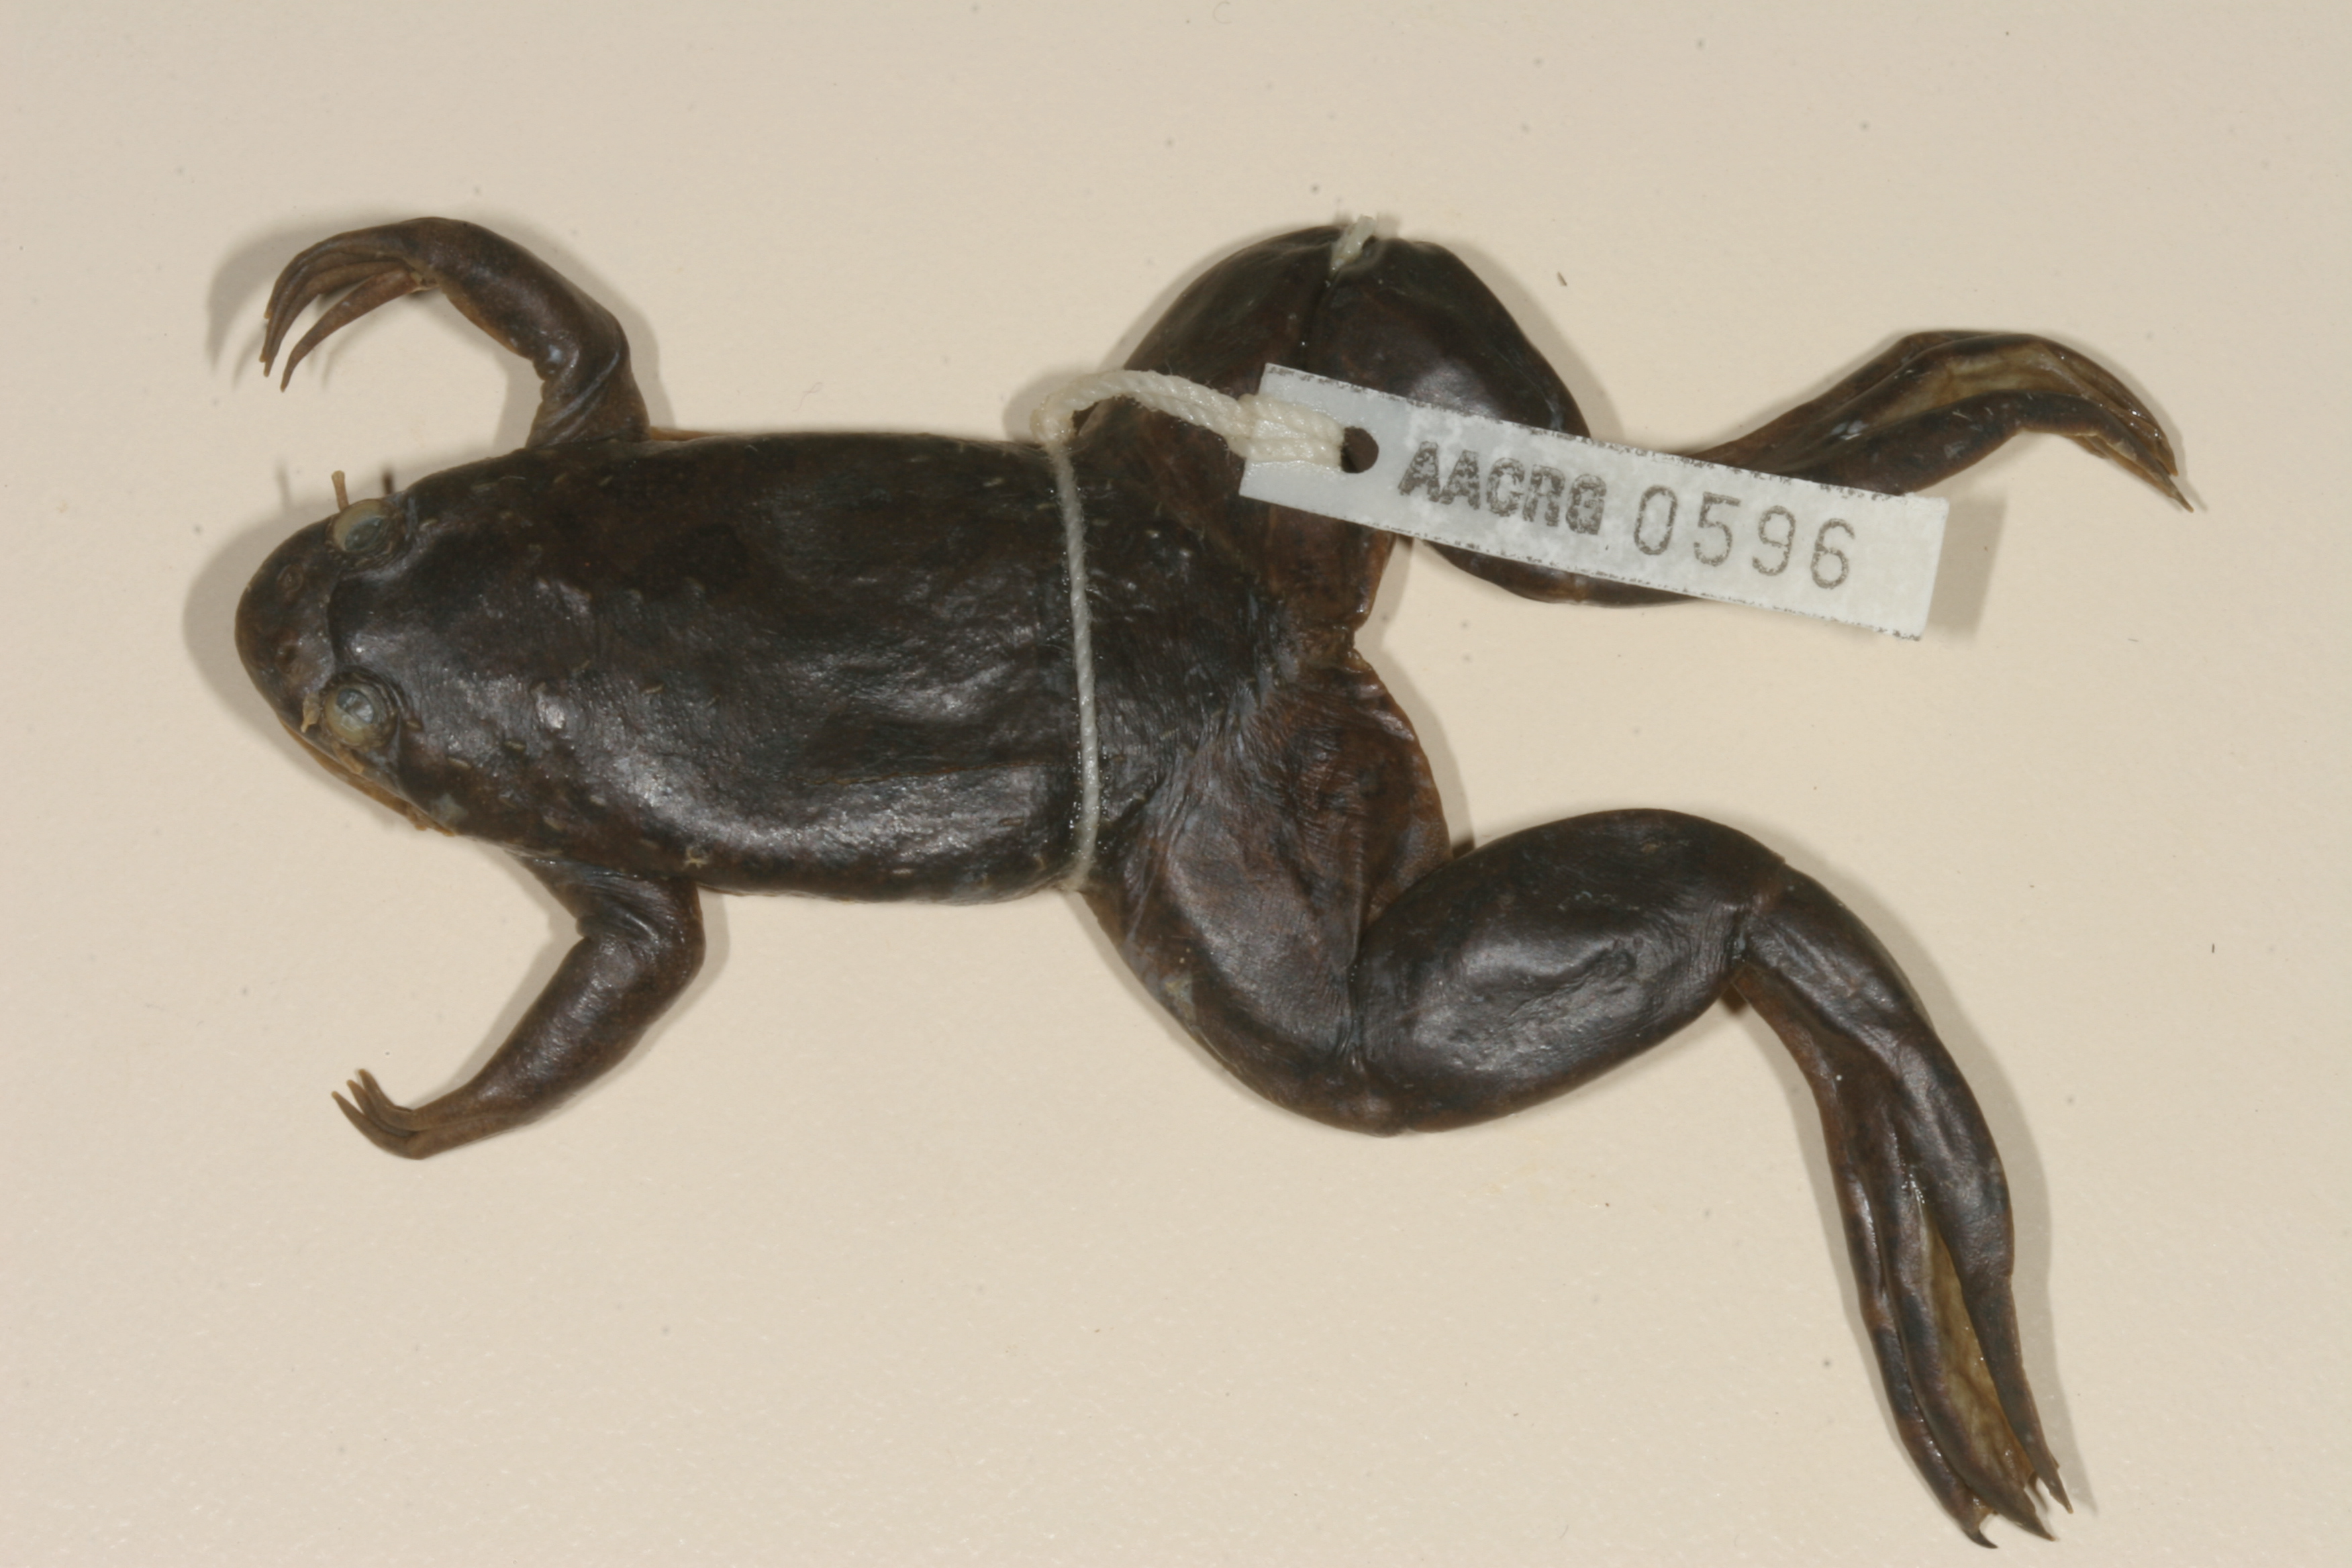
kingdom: Animalia
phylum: Chordata
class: Amphibia
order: Anura
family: Pipidae
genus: Xenopus
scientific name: Xenopus muelleri
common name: Muller's clawed frog
